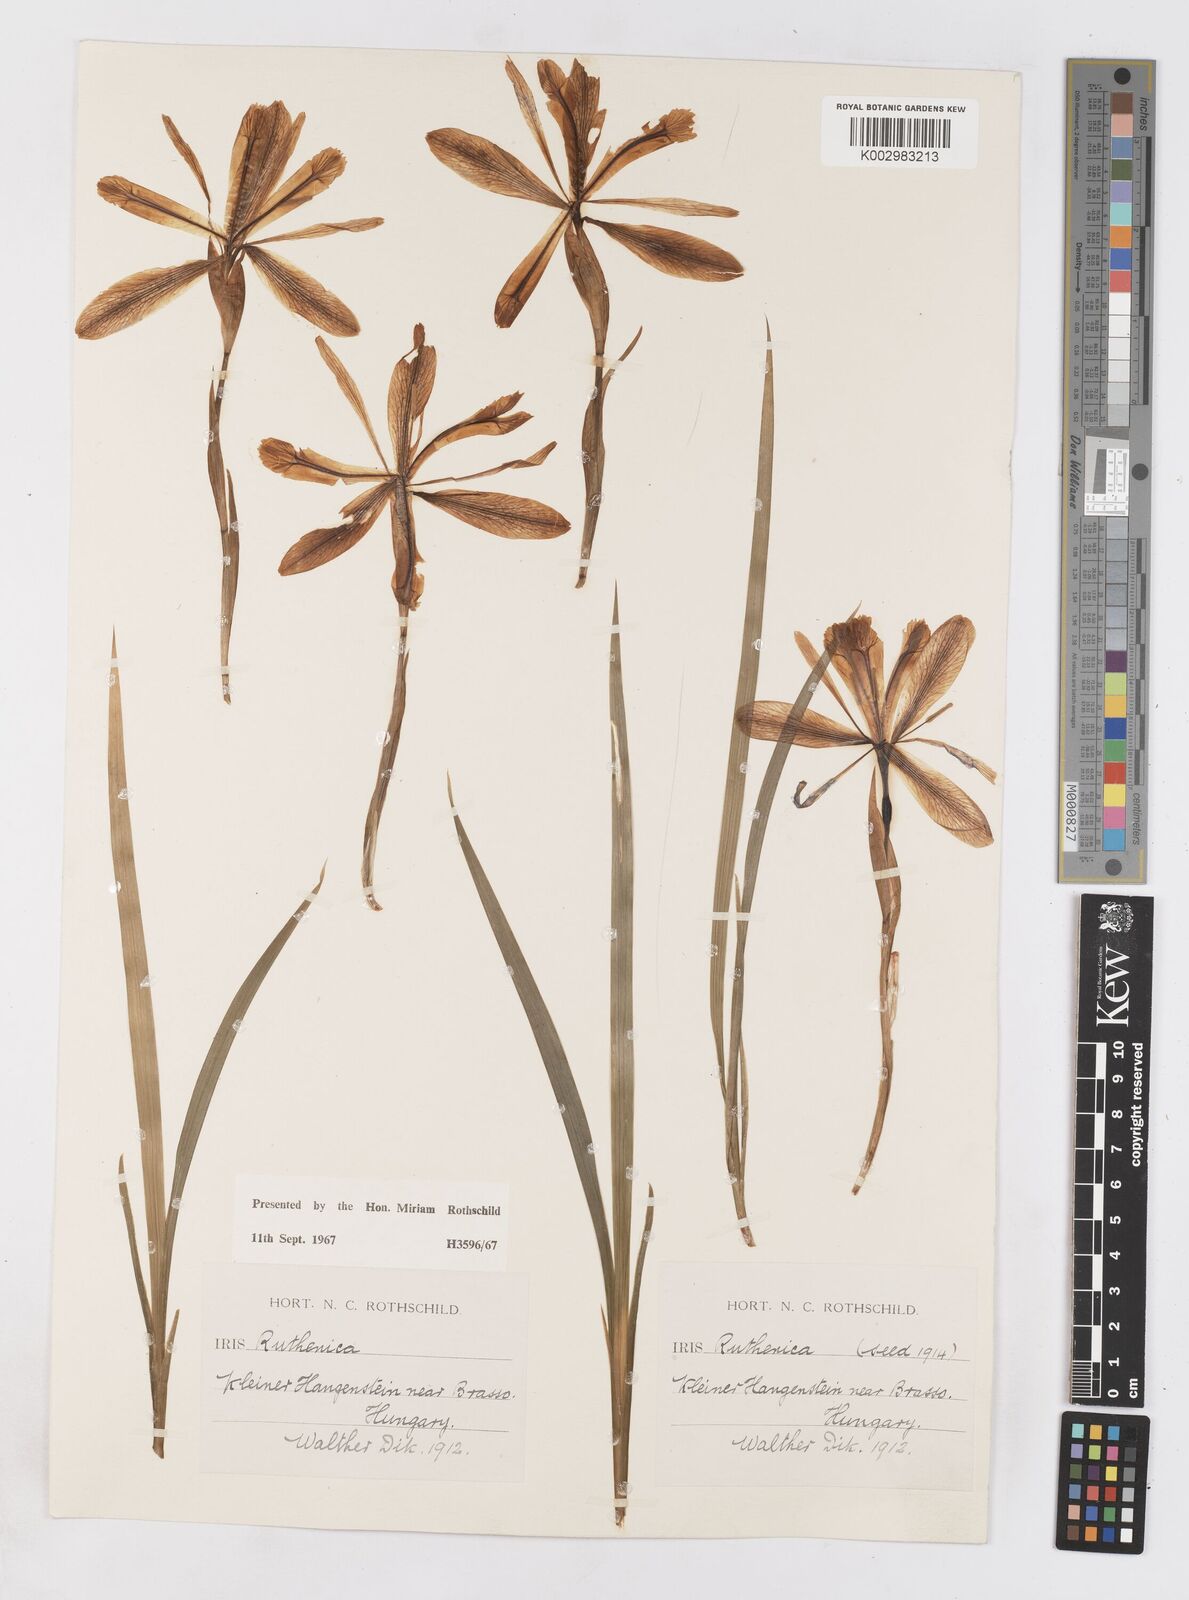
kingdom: Plantae
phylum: Tracheophyta
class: Liliopsida
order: Asparagales
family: Iridaceae
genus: Iris
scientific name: Iris ruthenica
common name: Purple-bract iris
